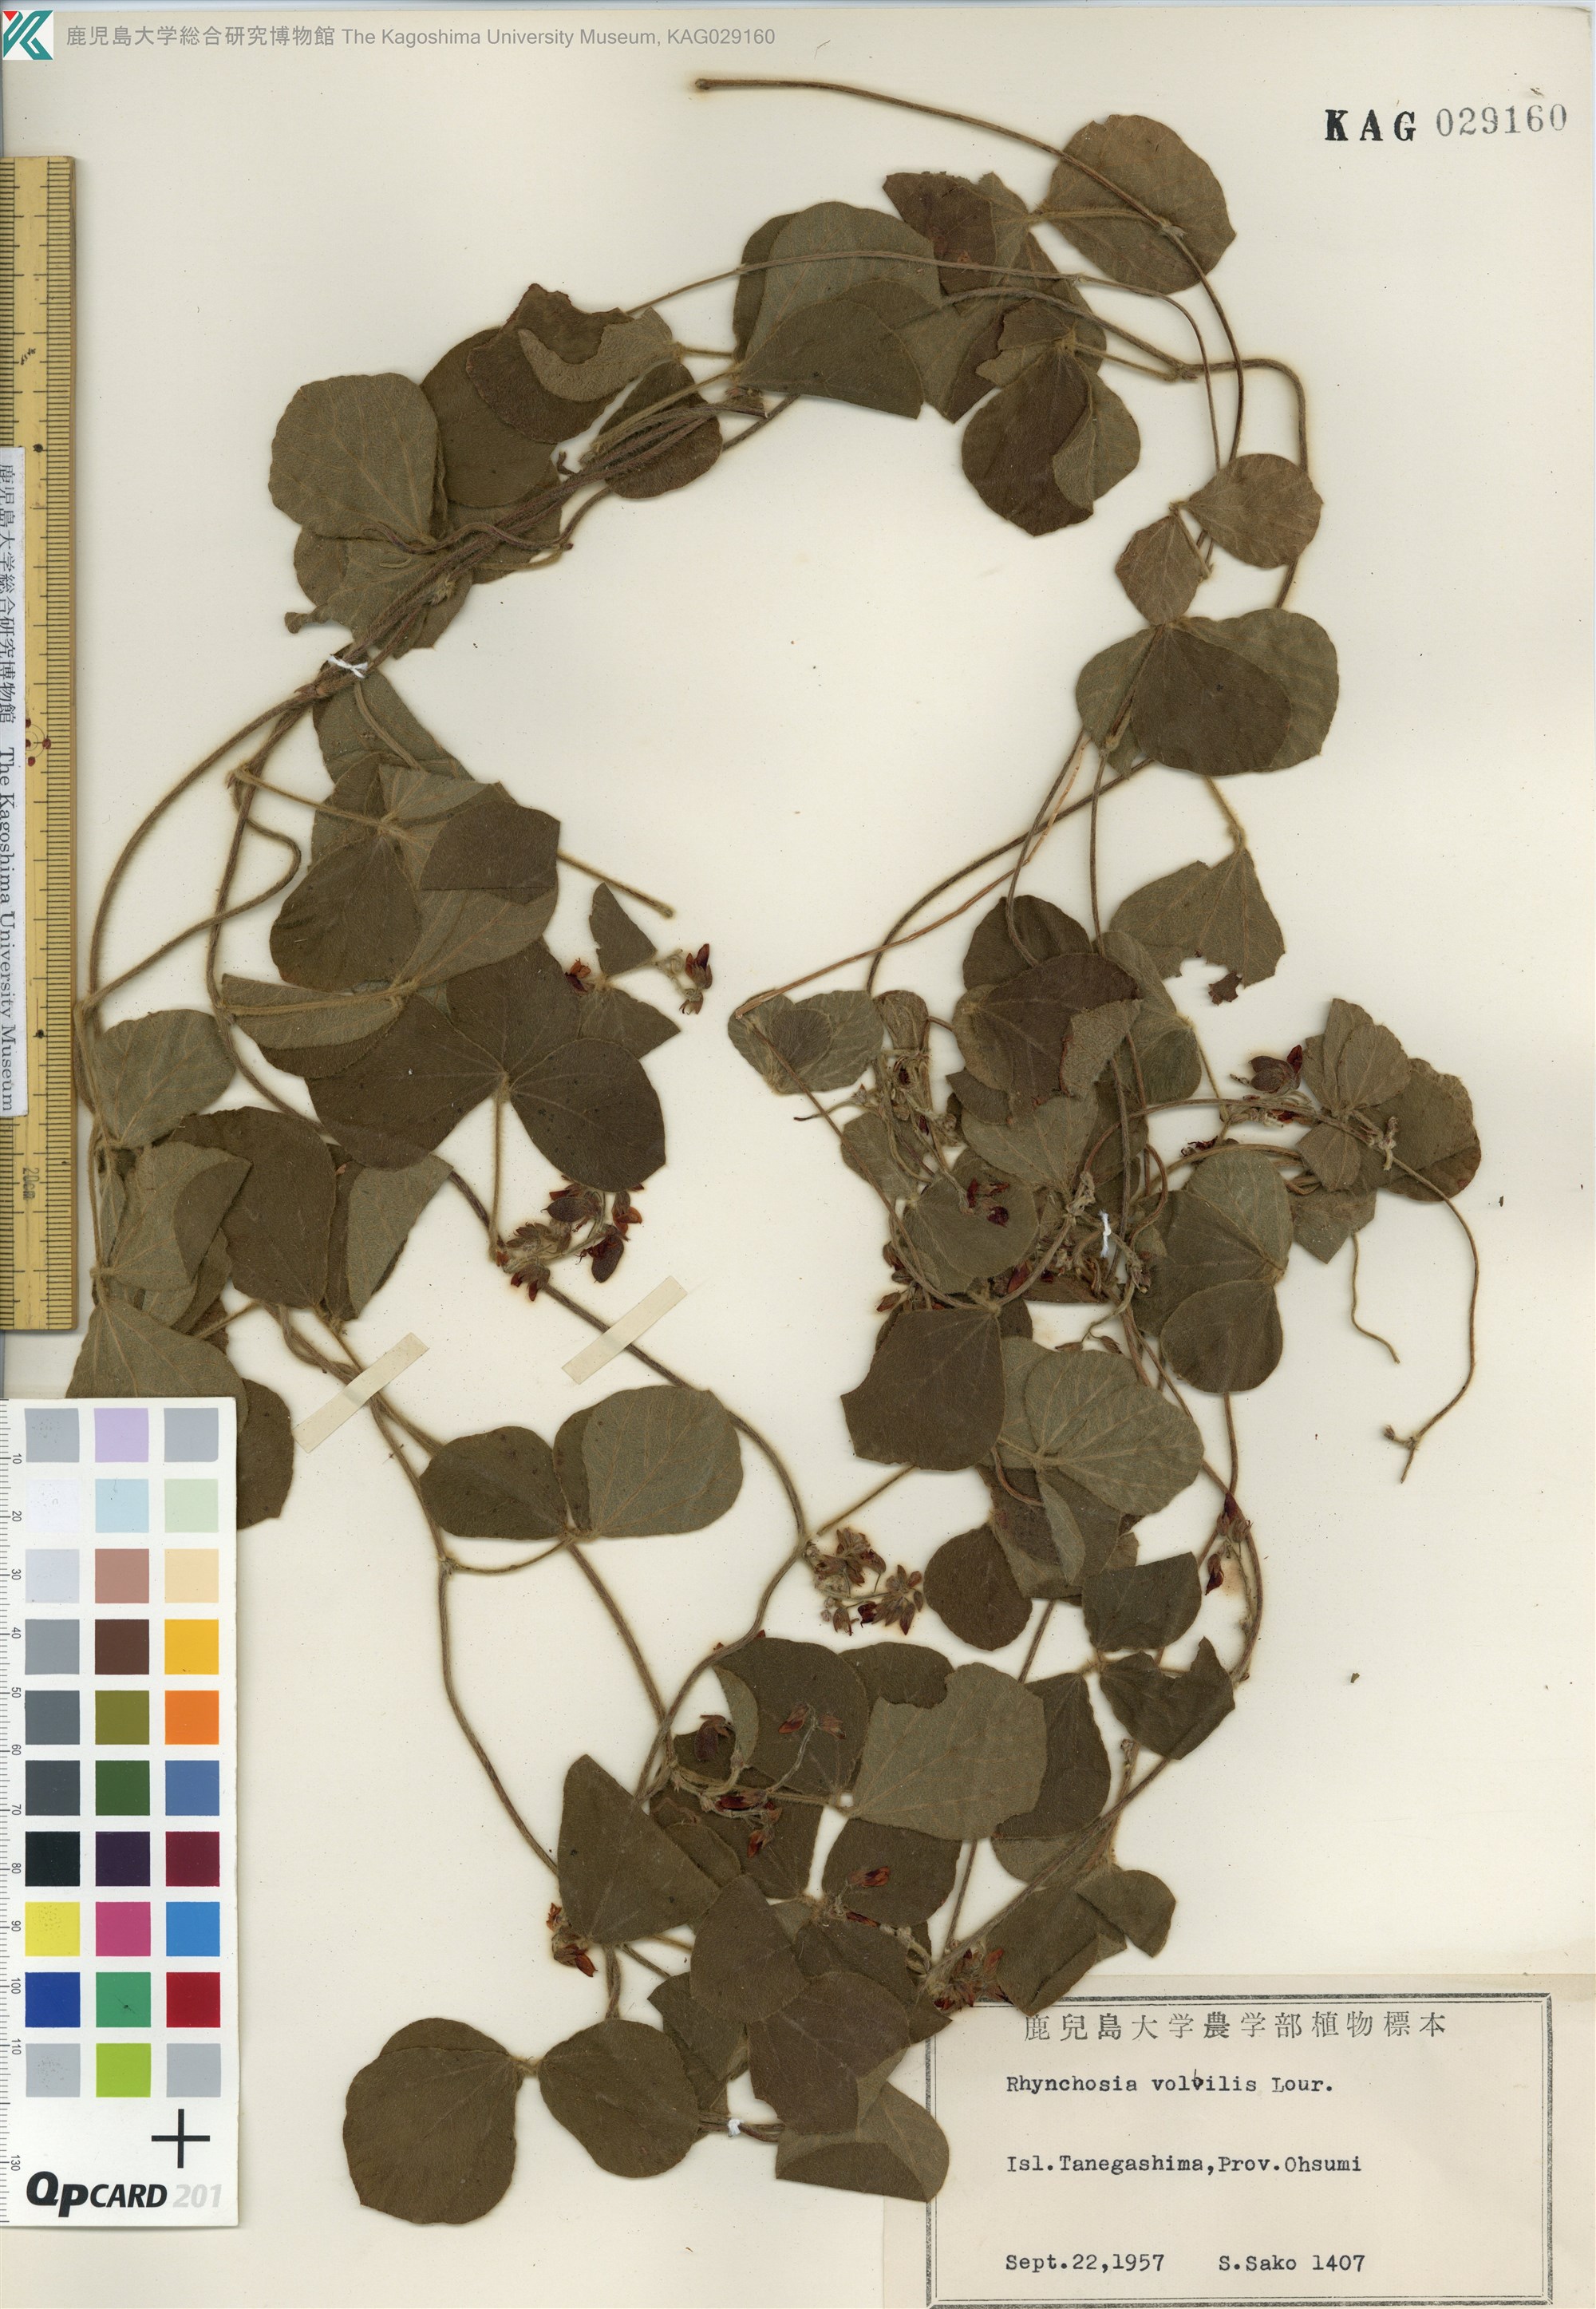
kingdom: Plantae
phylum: Tracheophyta
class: Magnoliopsida
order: Fabales
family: Fabaceae
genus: Rhynchosia
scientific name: Rhynchosia volubilis
